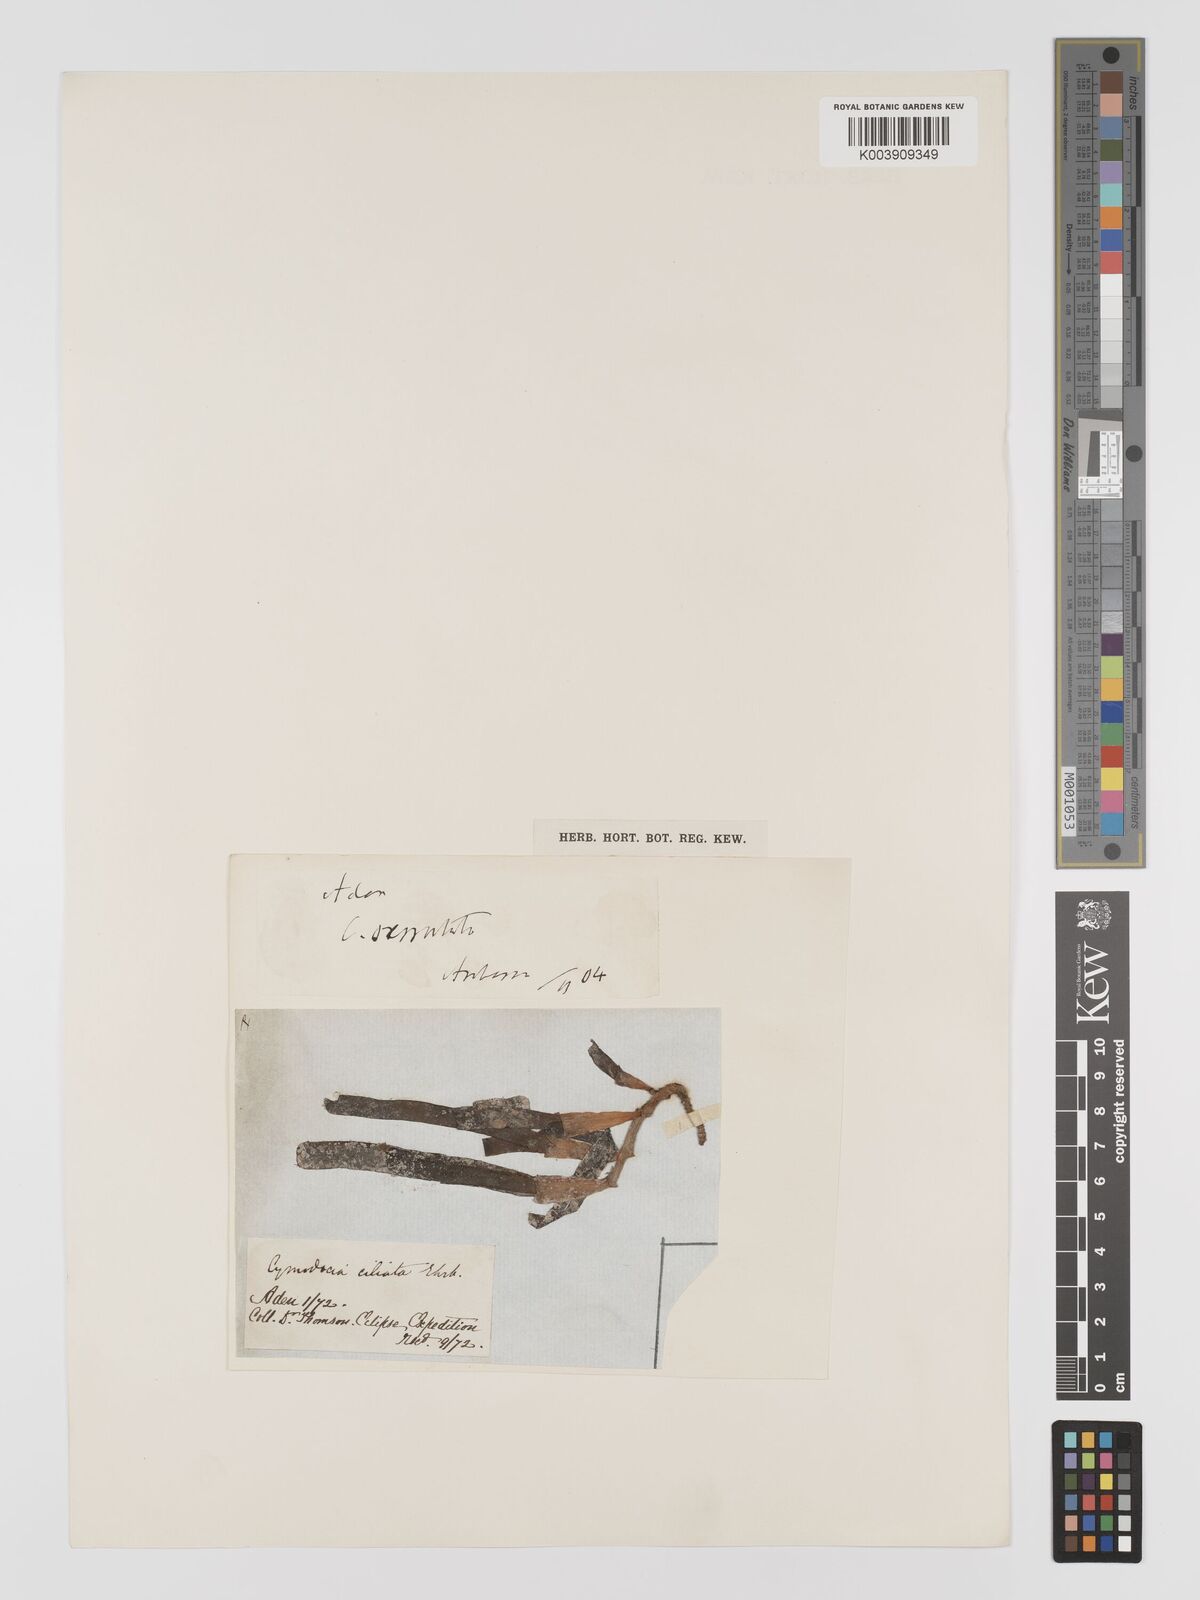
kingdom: Plantae
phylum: Tracheophyta
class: Liliopsida
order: Alismatales
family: Cymodoceaceae
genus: Oceana
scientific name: Oceana serrulata
